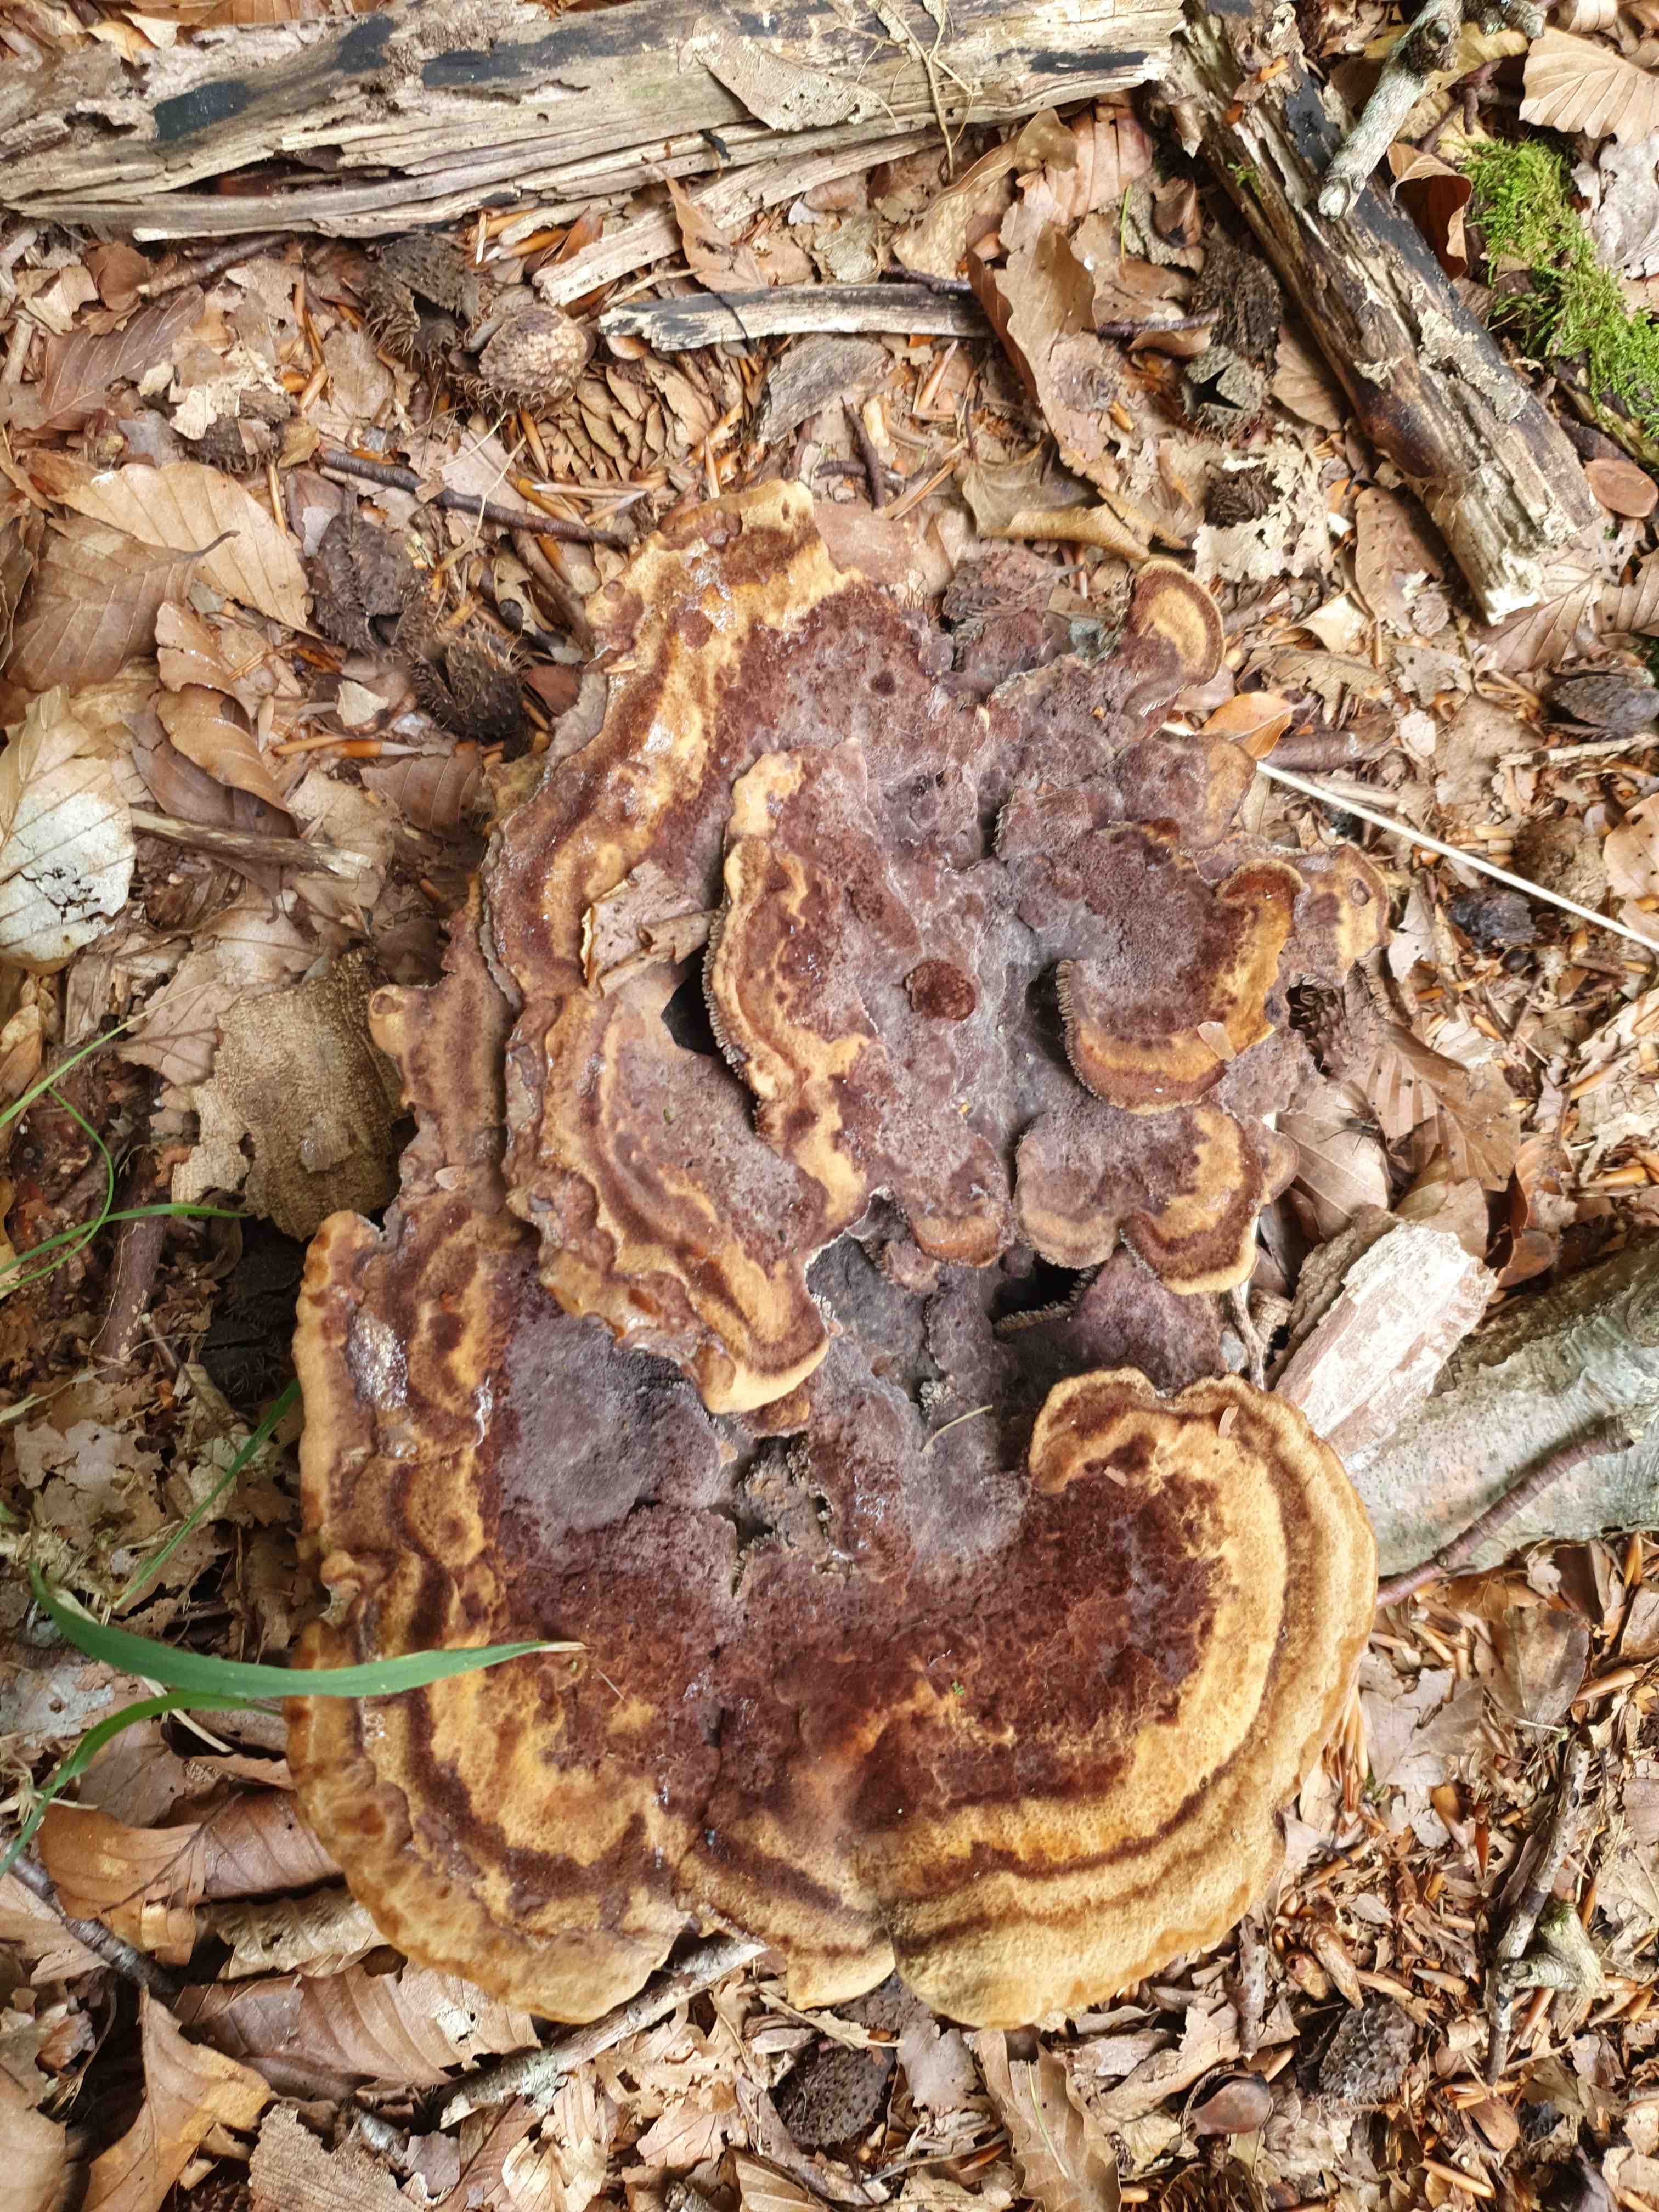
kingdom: Fungi
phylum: Basidiomycota
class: Agaricomycetes
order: Polyporales
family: Laetiporaceae
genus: Phaeolus
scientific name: Phaeolus schweinitzii
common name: brunporesvamp
